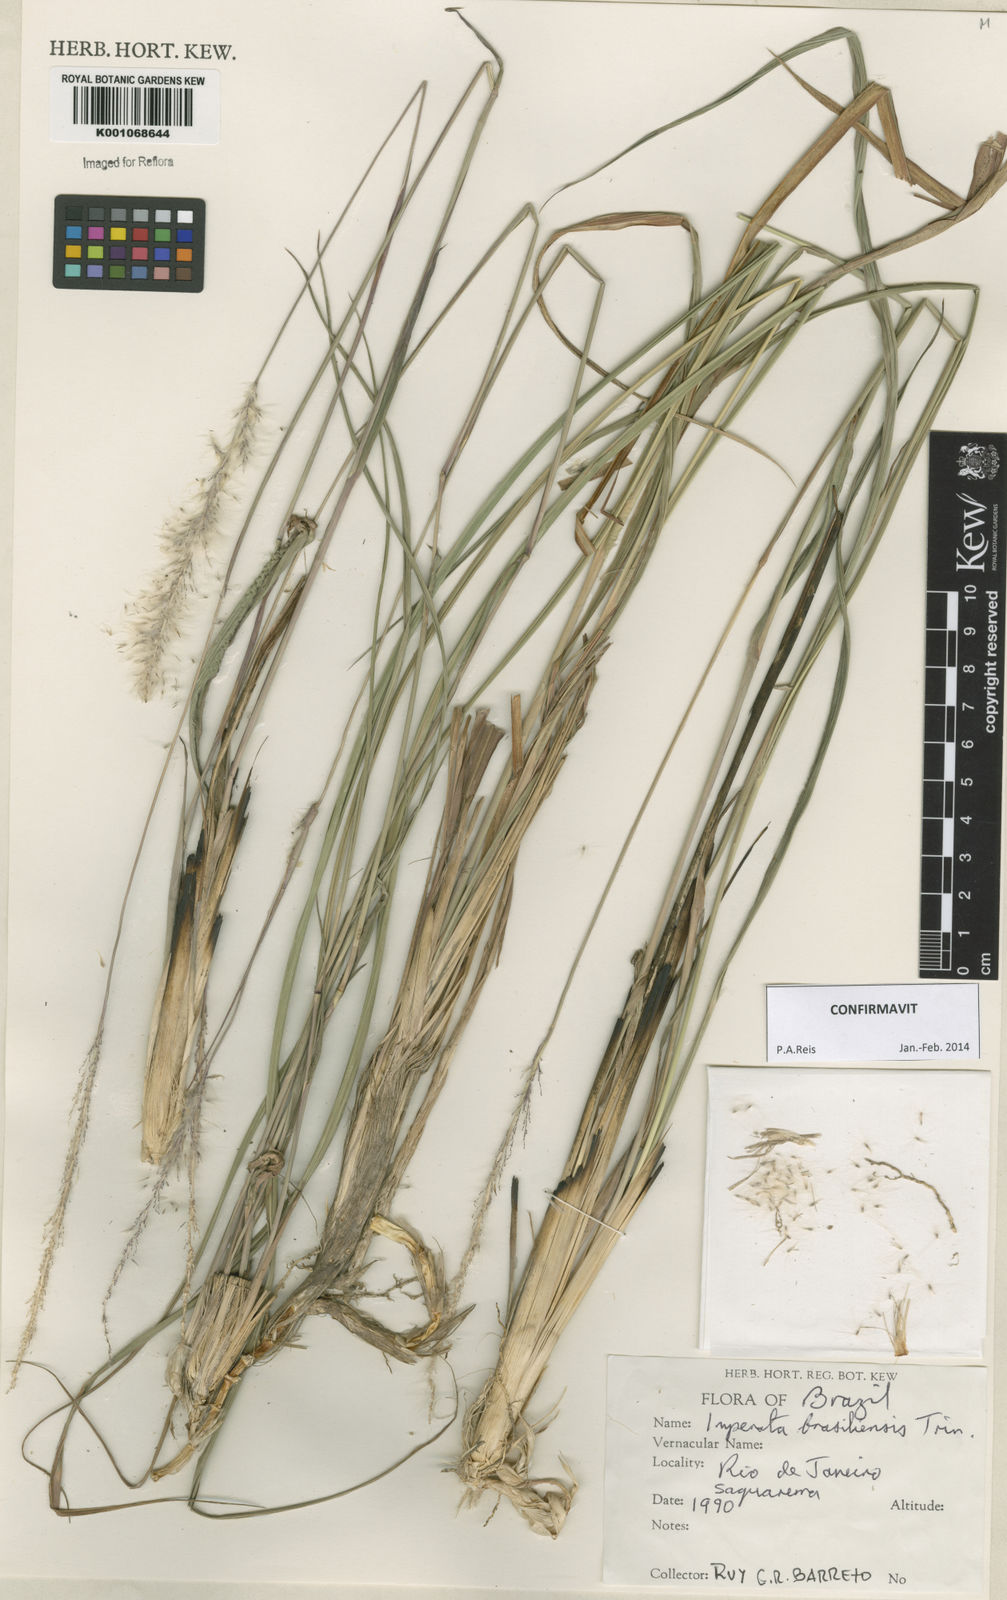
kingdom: Plantae
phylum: Tracheophyta
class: Liliopsida
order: Poales
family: Poaceae
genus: Imperata
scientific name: Imperata brasiliensis
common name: Brazilian satintail
